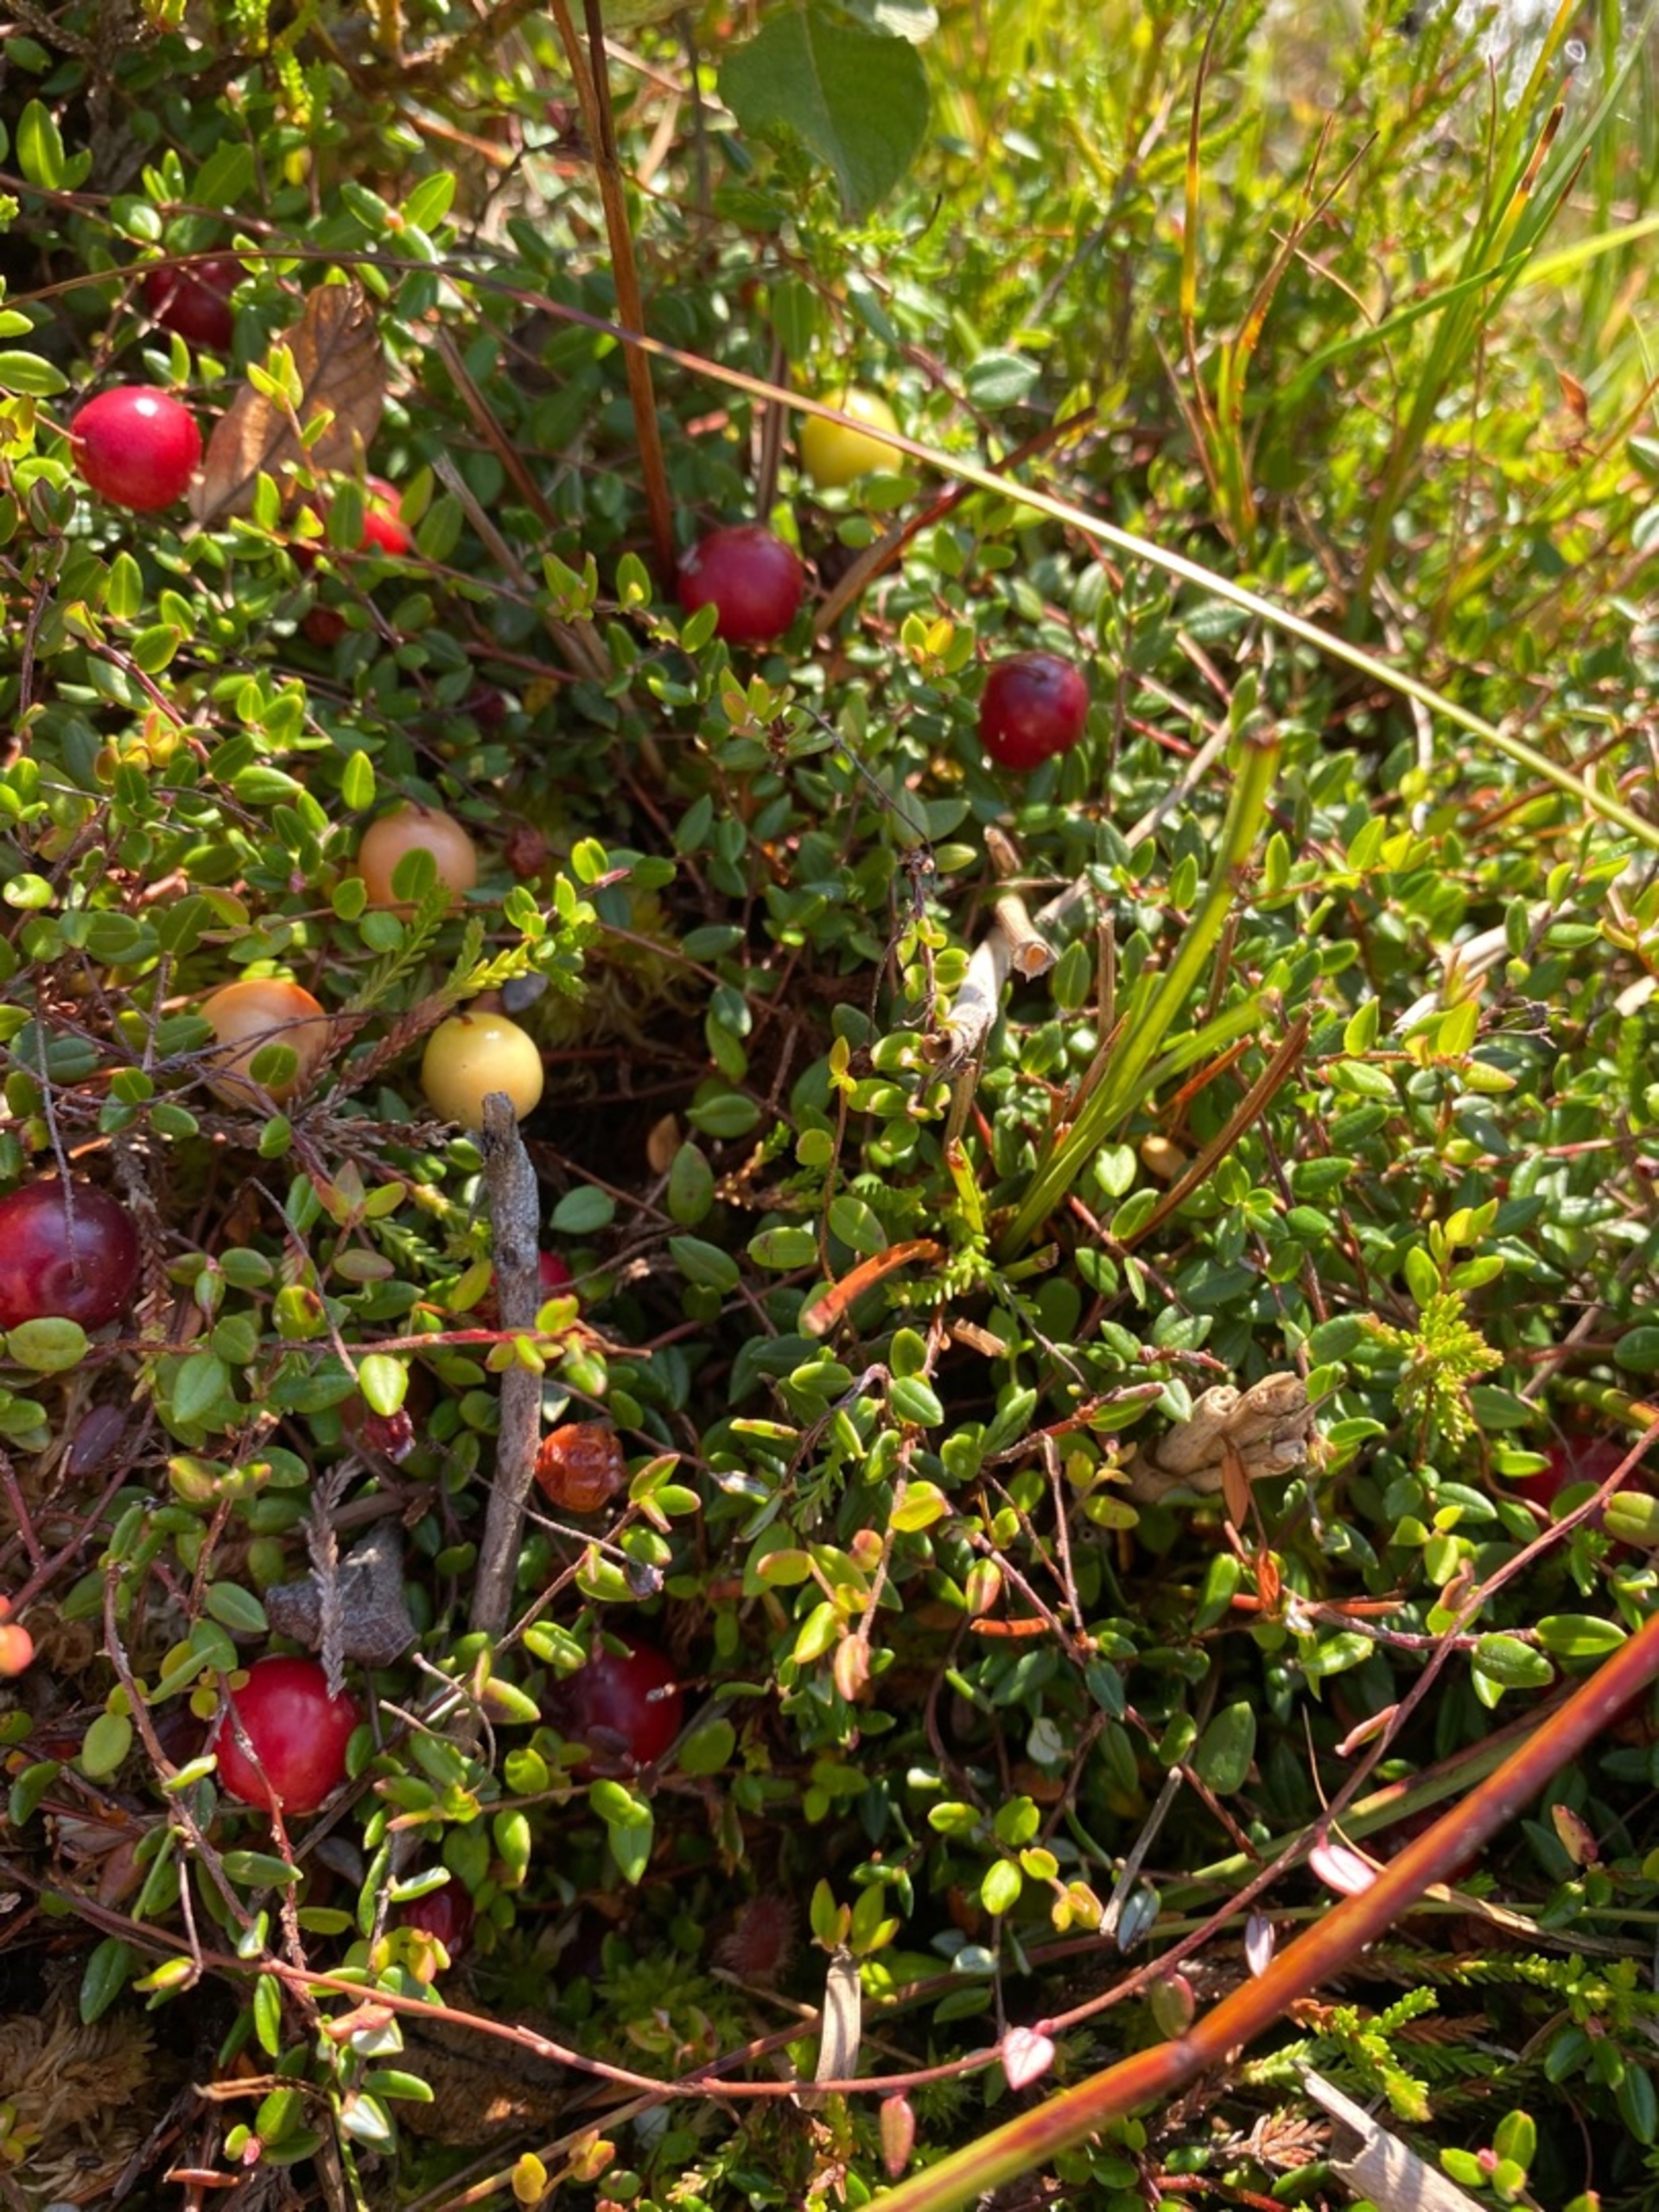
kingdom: Plantae
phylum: Tracheophyta
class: Magnoliopsida
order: Ericales
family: Ericaceae
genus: Vaccinium
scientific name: Vaccinium oxycoccos
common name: Tranebær
